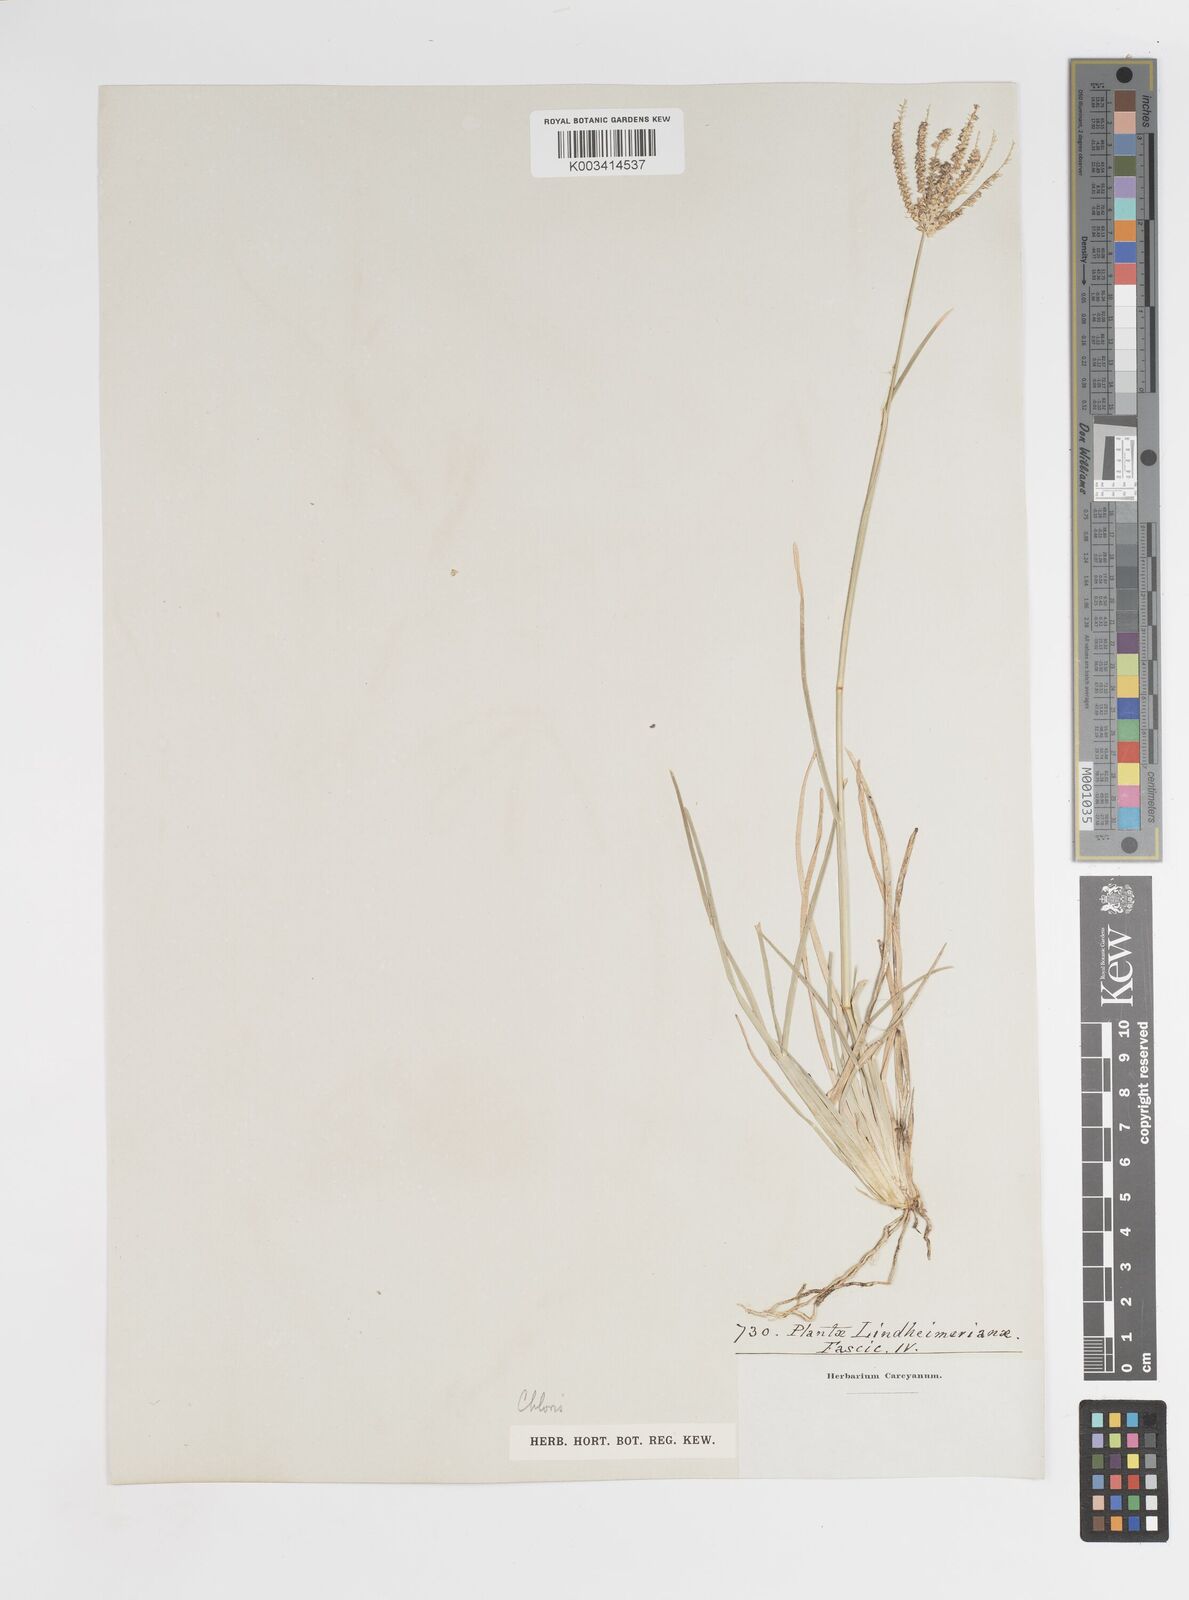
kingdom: Plantae
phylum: Tracheophyta
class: Liliopsida
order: Poales
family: Poaceae
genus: Chloris
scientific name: Chloris cucullata
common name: Hooded windmill grass
